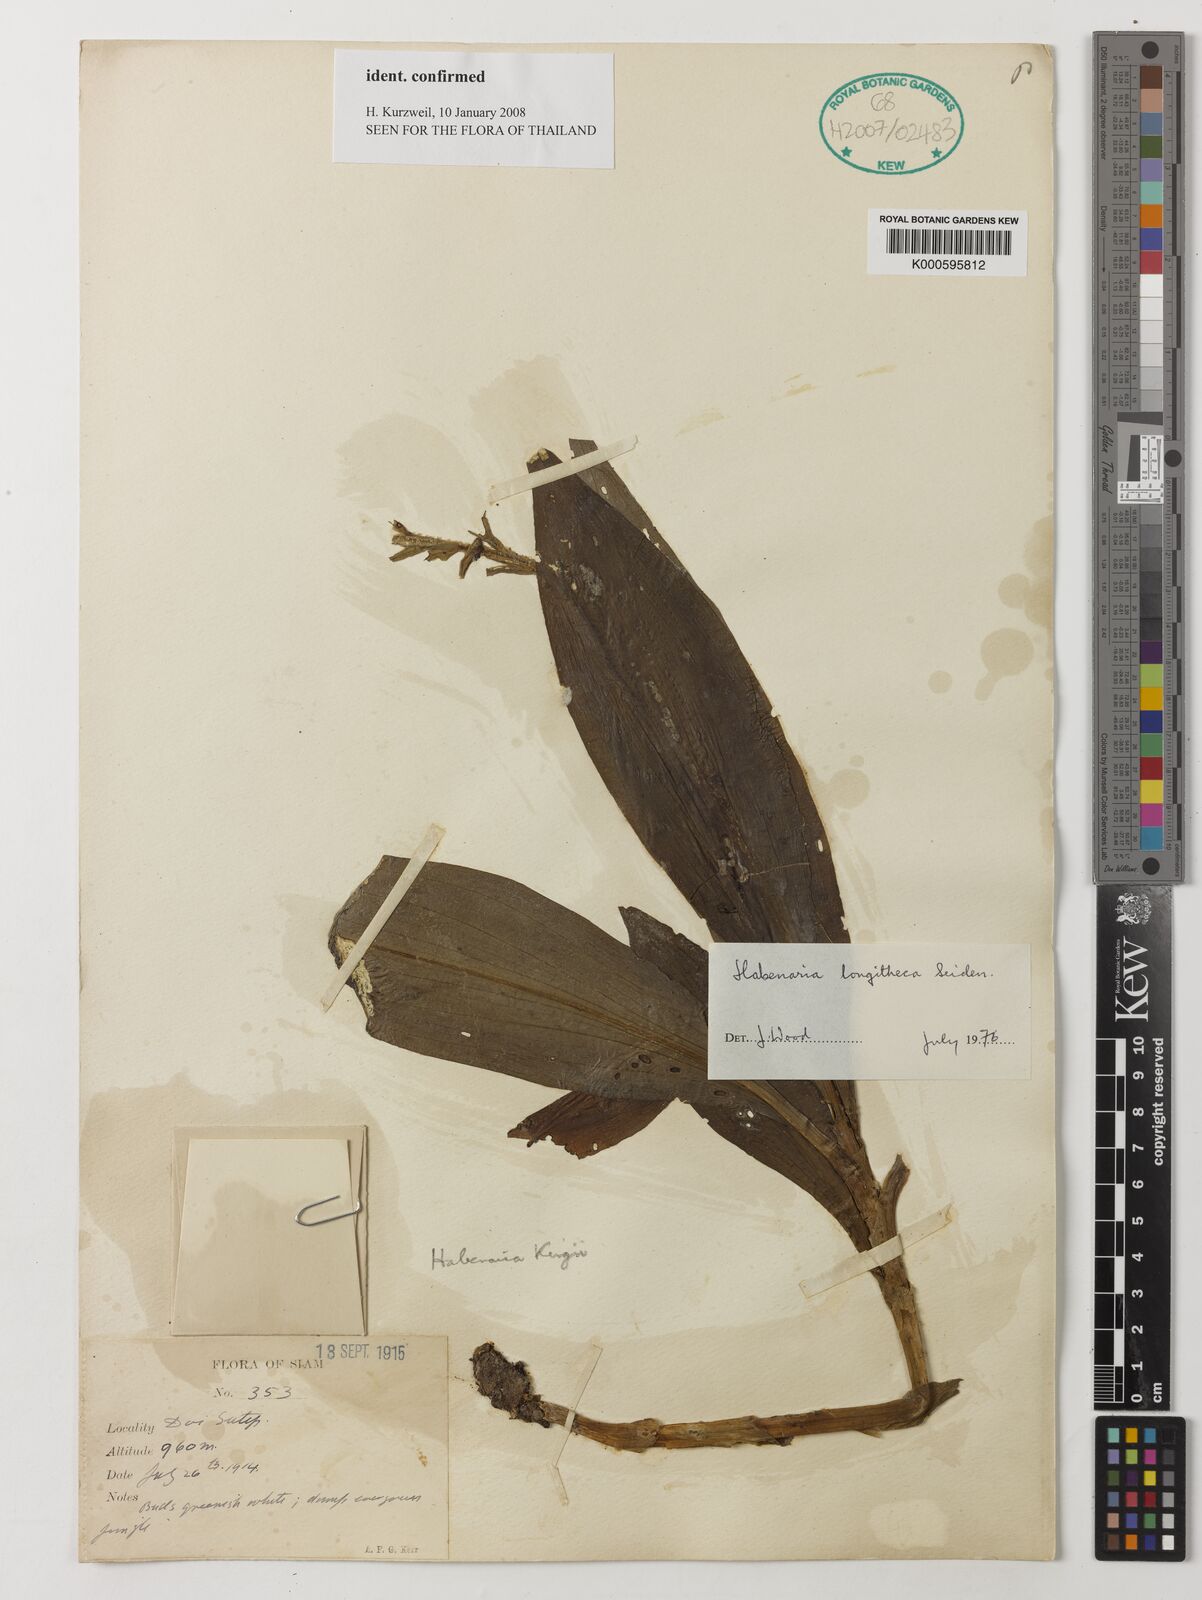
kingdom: Plantae
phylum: Tracheophyta
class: Liliopsida
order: Asparagales
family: Orchidaceae
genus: Habenaria
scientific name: Habenaria longitheca
